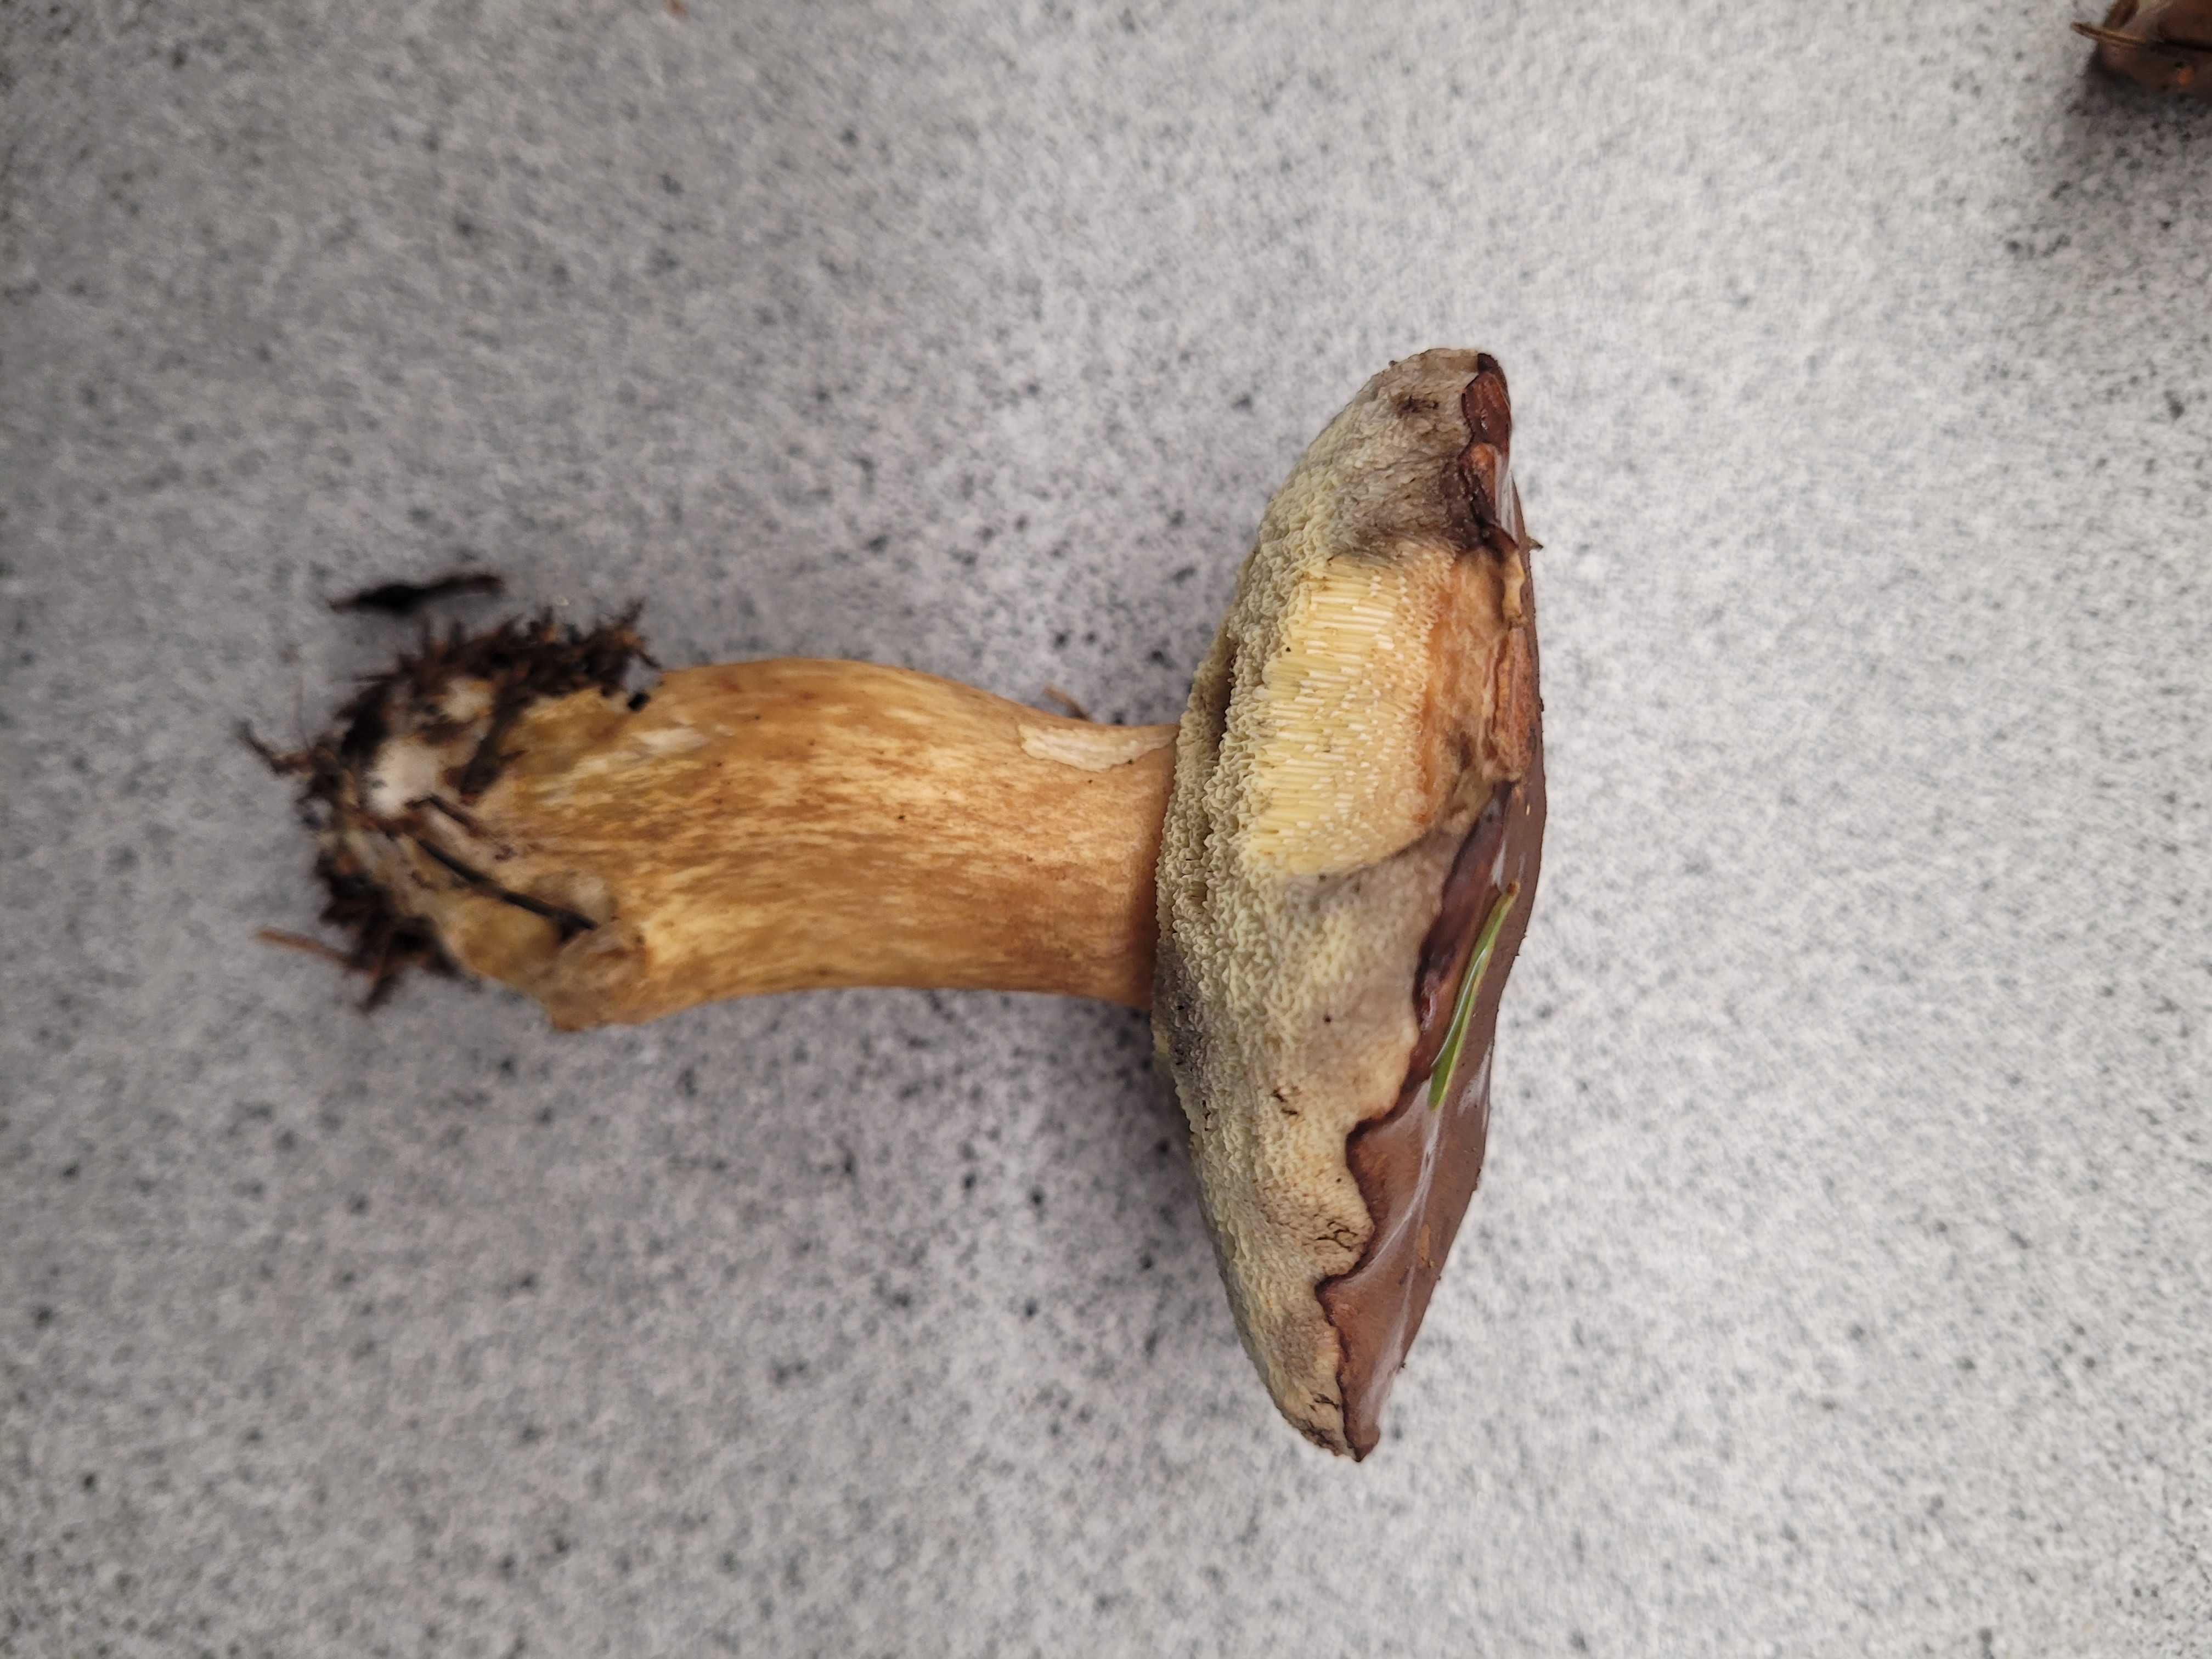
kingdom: Fungi
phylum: Basidiomycota
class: Agaricomycetes
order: Boletales
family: Boletaceae
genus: Imleria
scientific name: Imleria badia
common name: brunstokket rørhat
